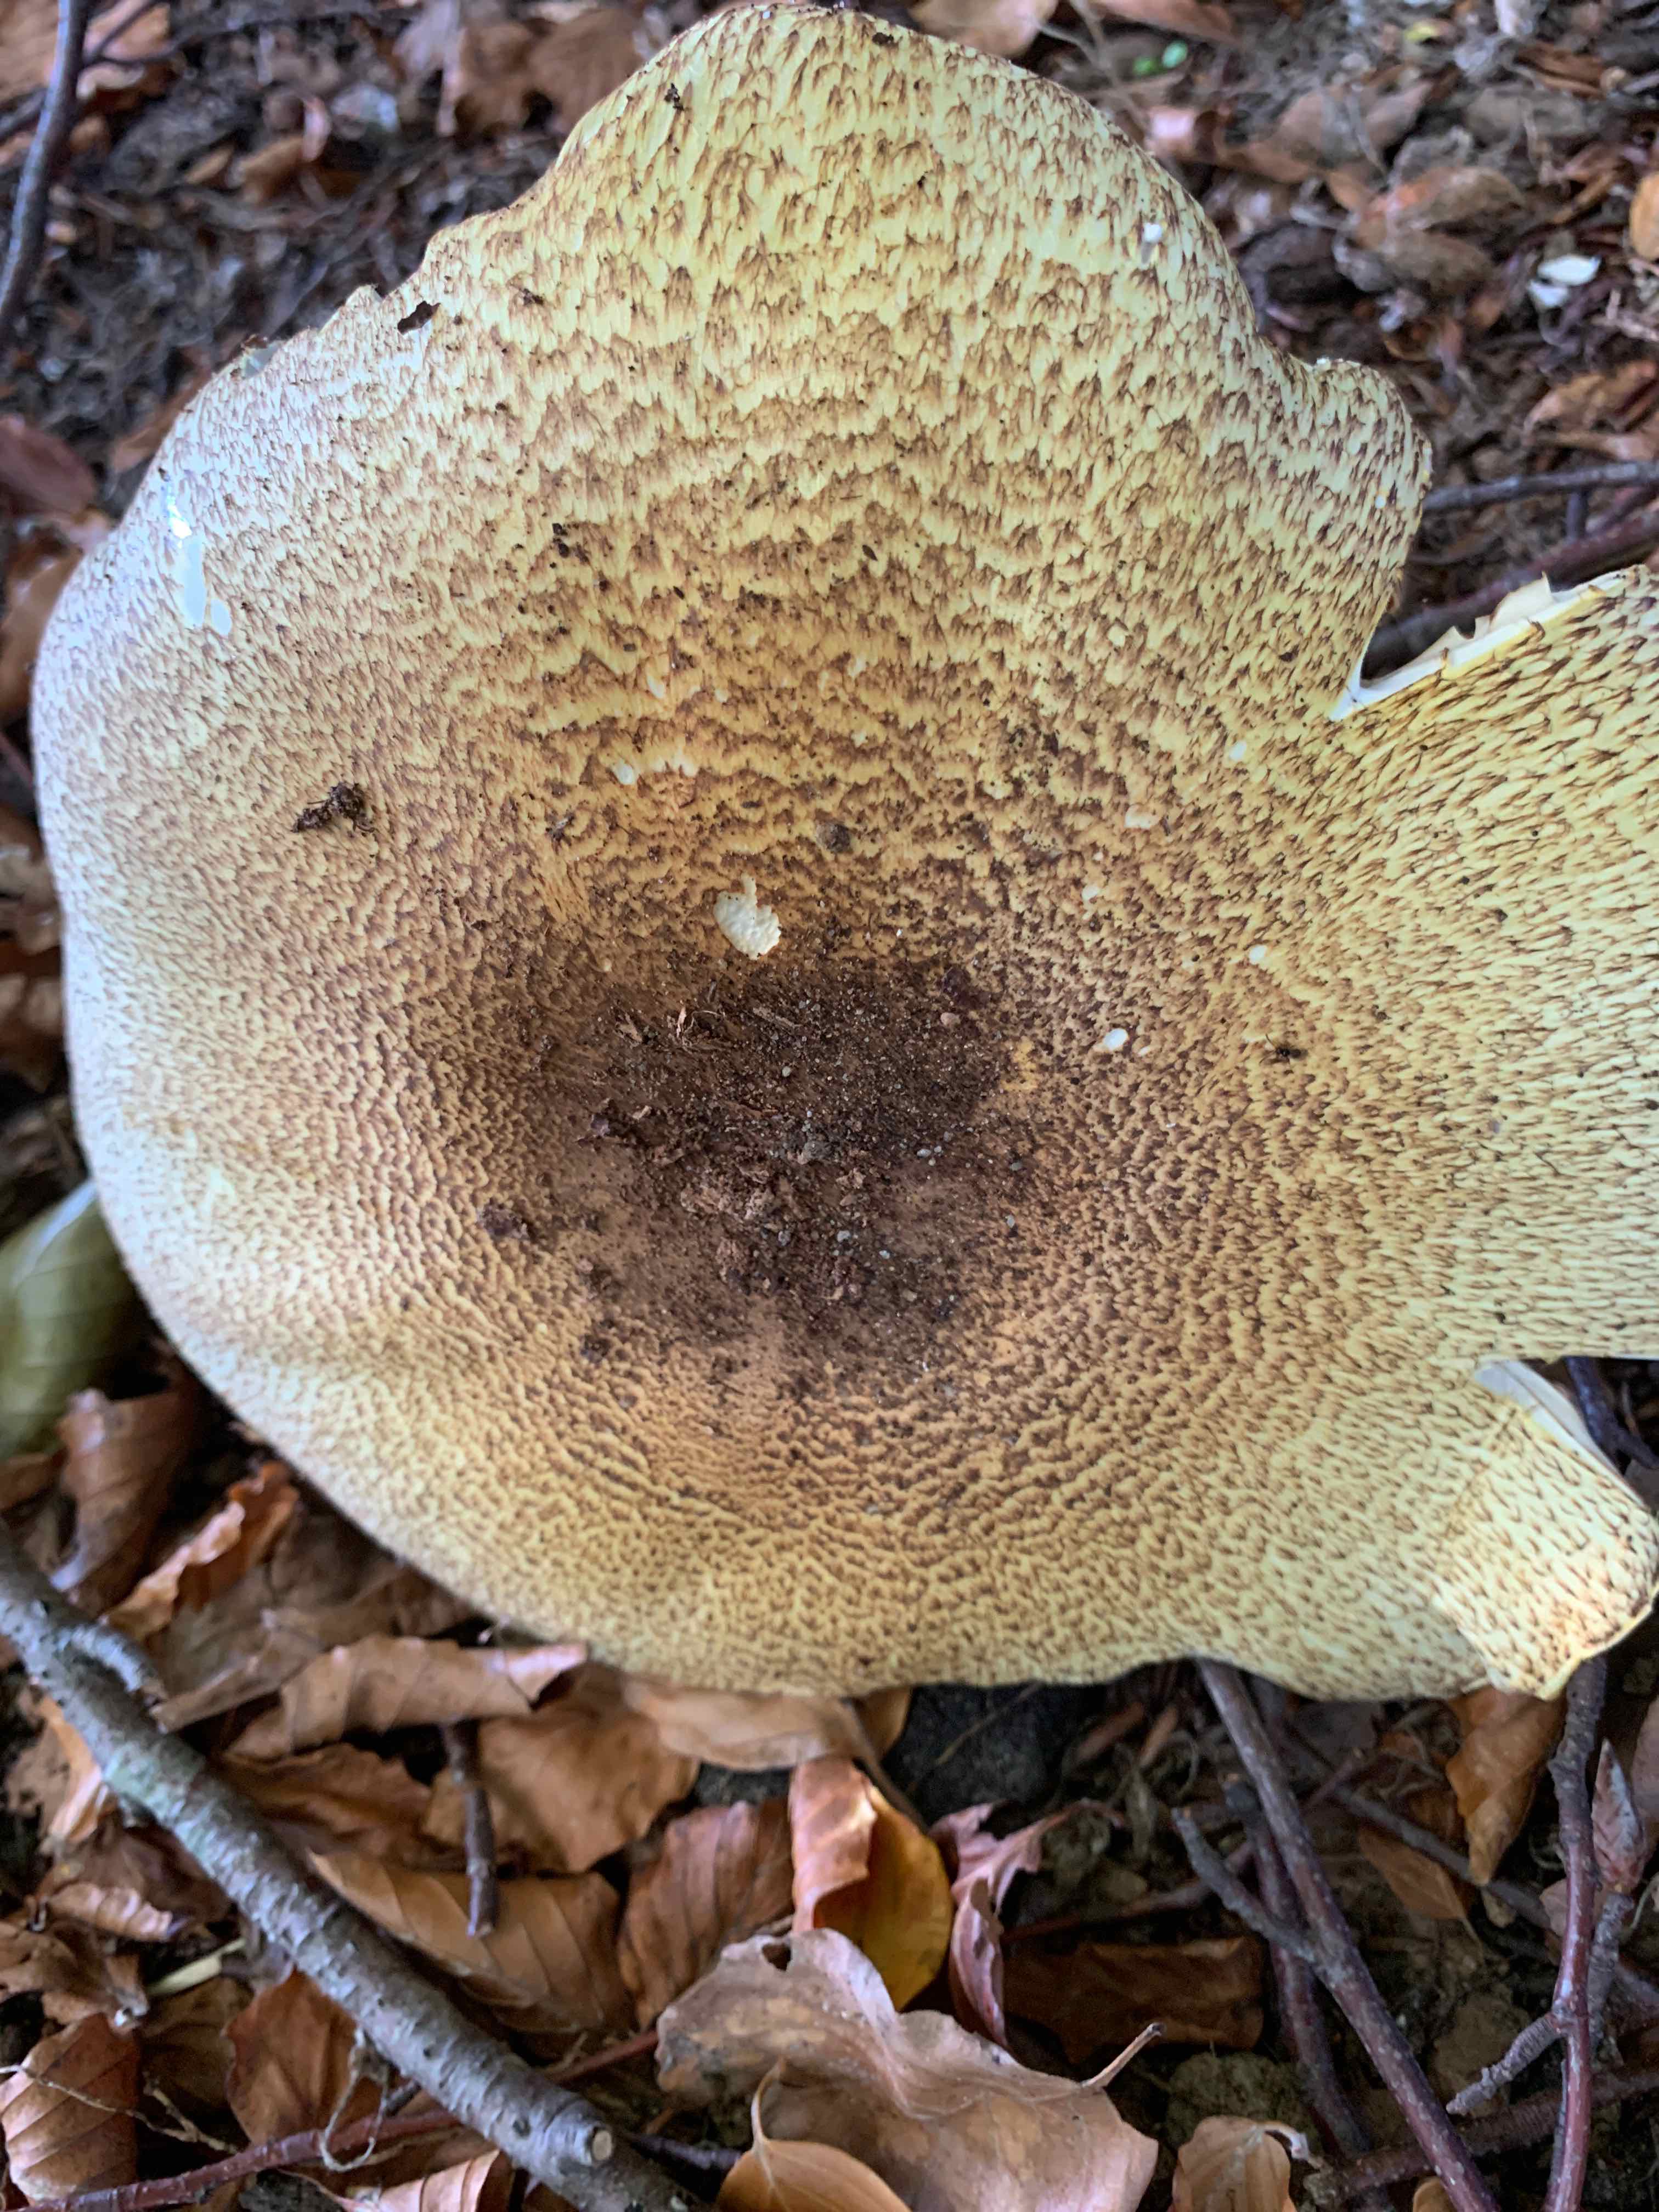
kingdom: Fungi
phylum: Basidiomycota
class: Agaricomycetes
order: Agaricales
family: Agaricaceae
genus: Agaricus
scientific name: Agaricus augustus
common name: prægtig champignon
